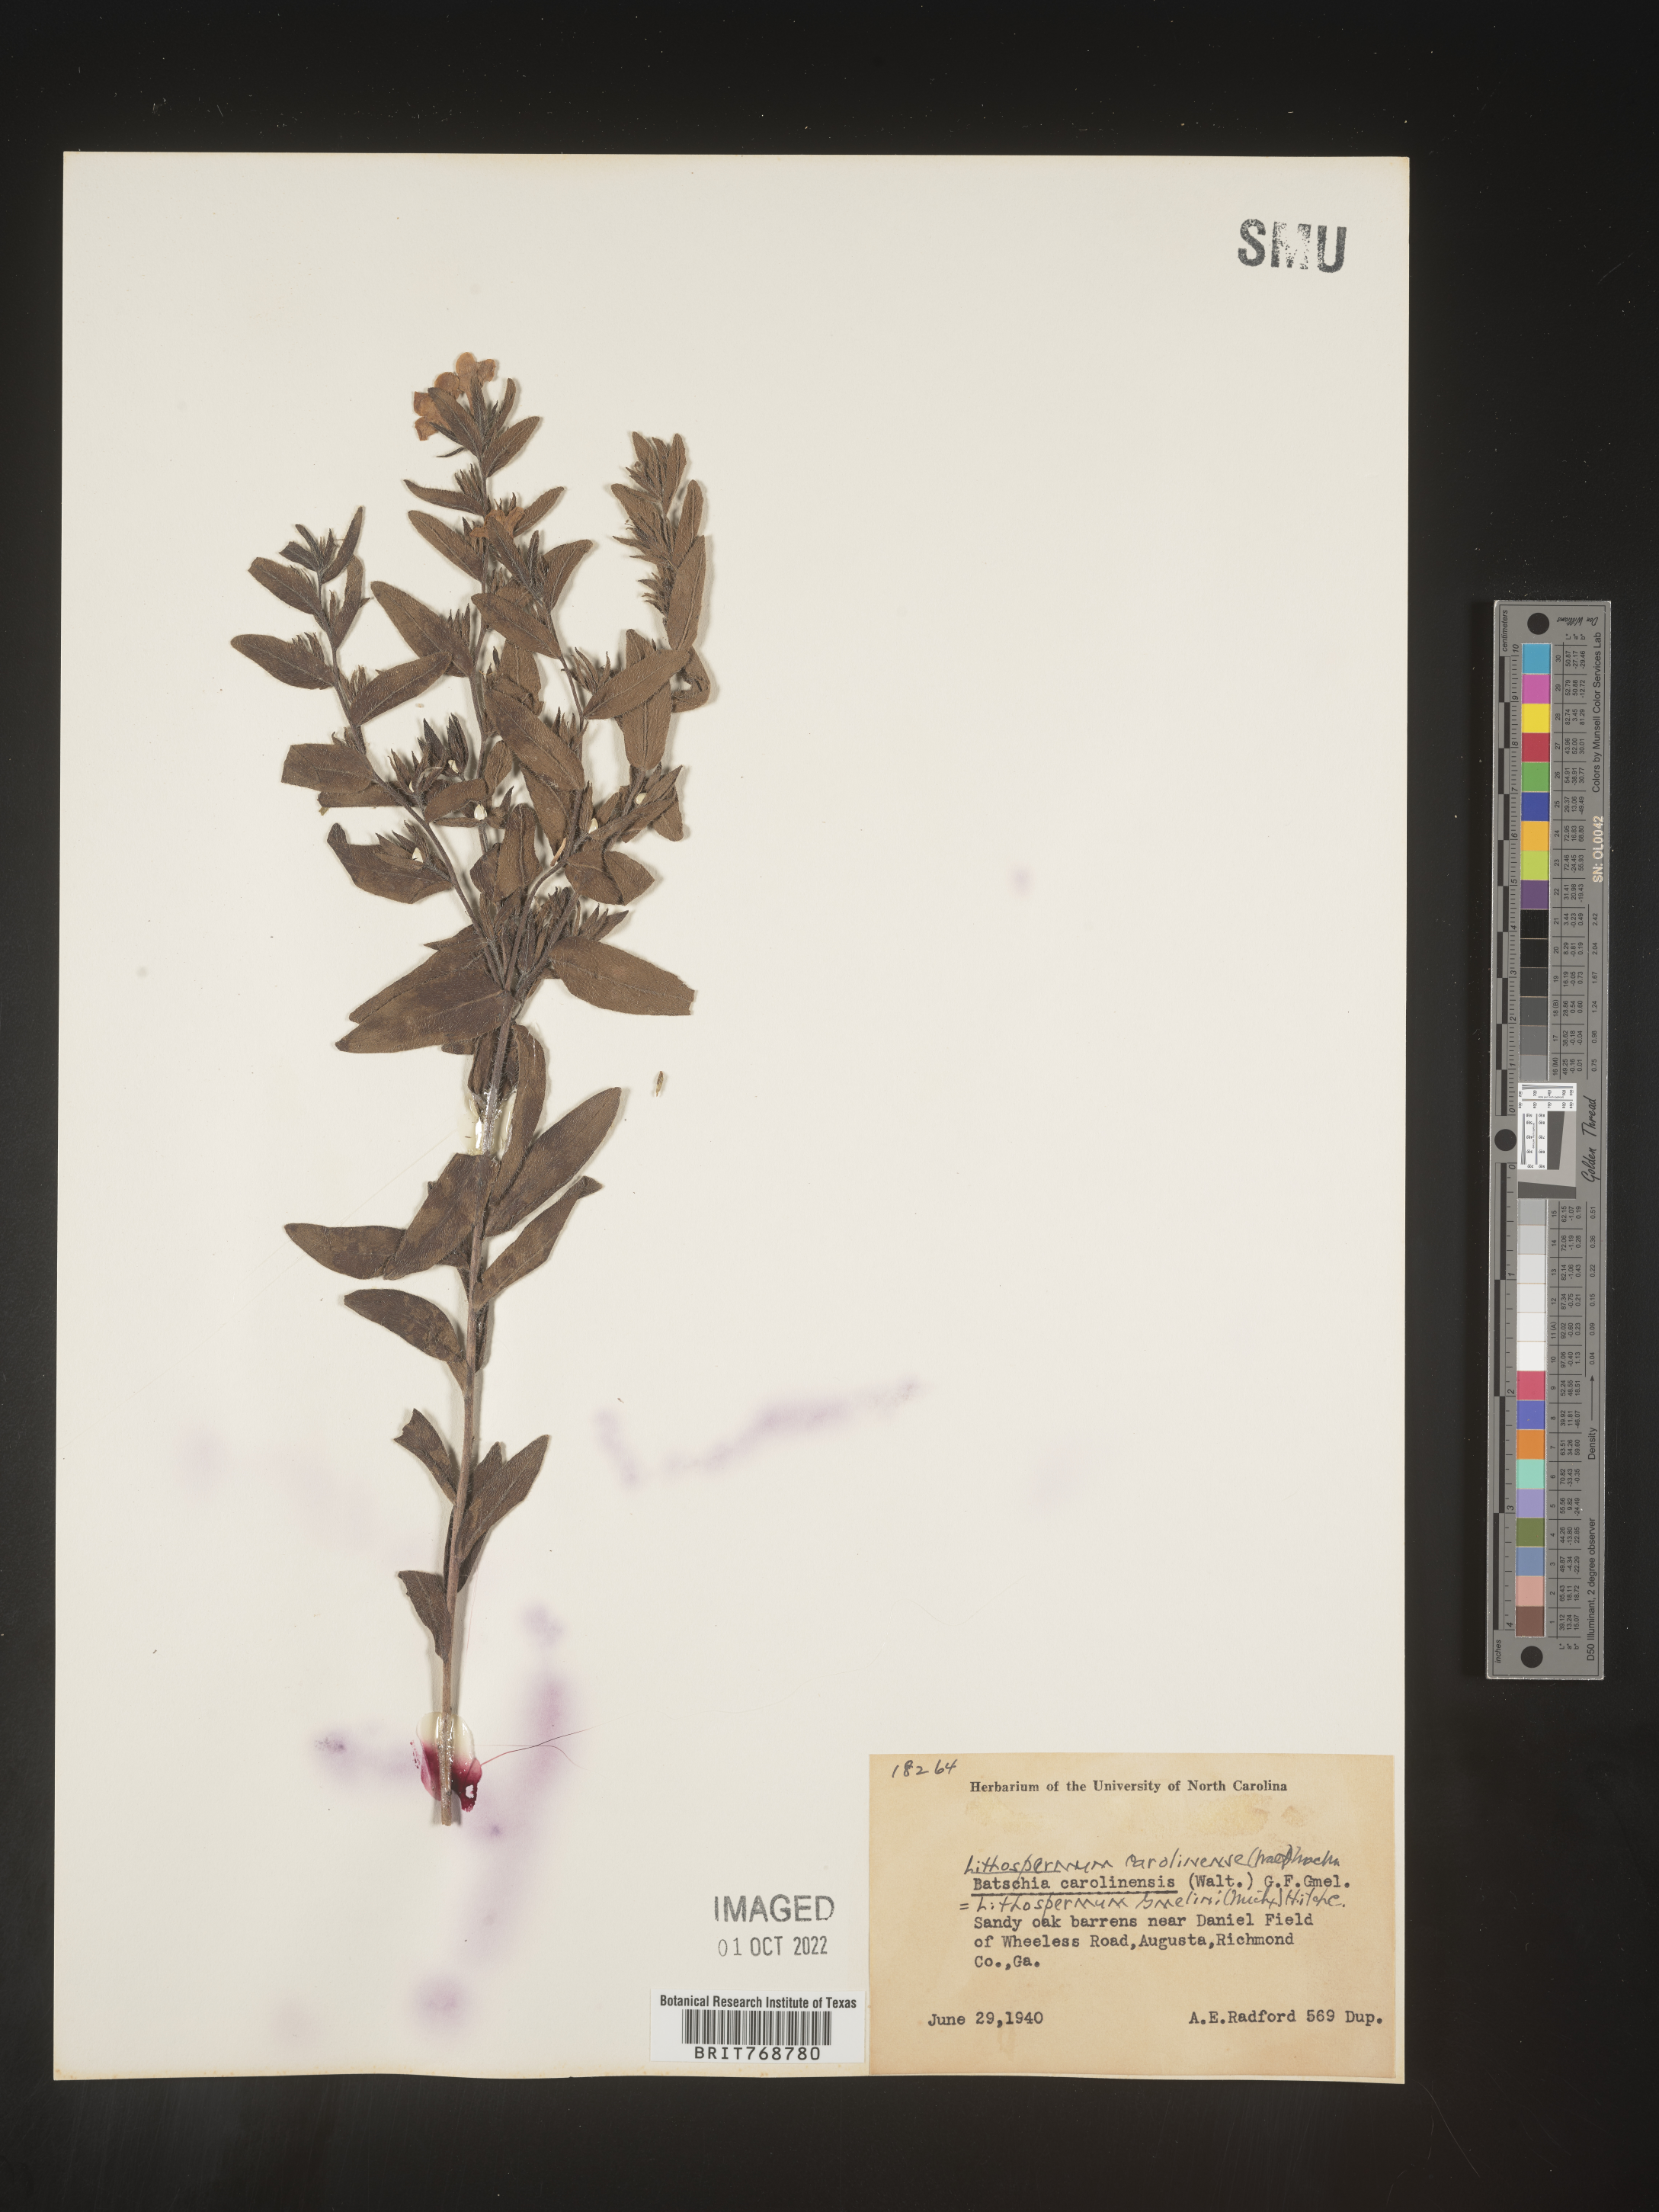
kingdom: Plantae
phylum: Tracheophyta
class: Magnoliopsida
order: Boraginales
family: Boraginaceae
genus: Lithospermum
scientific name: Lithospermum caroliniense
